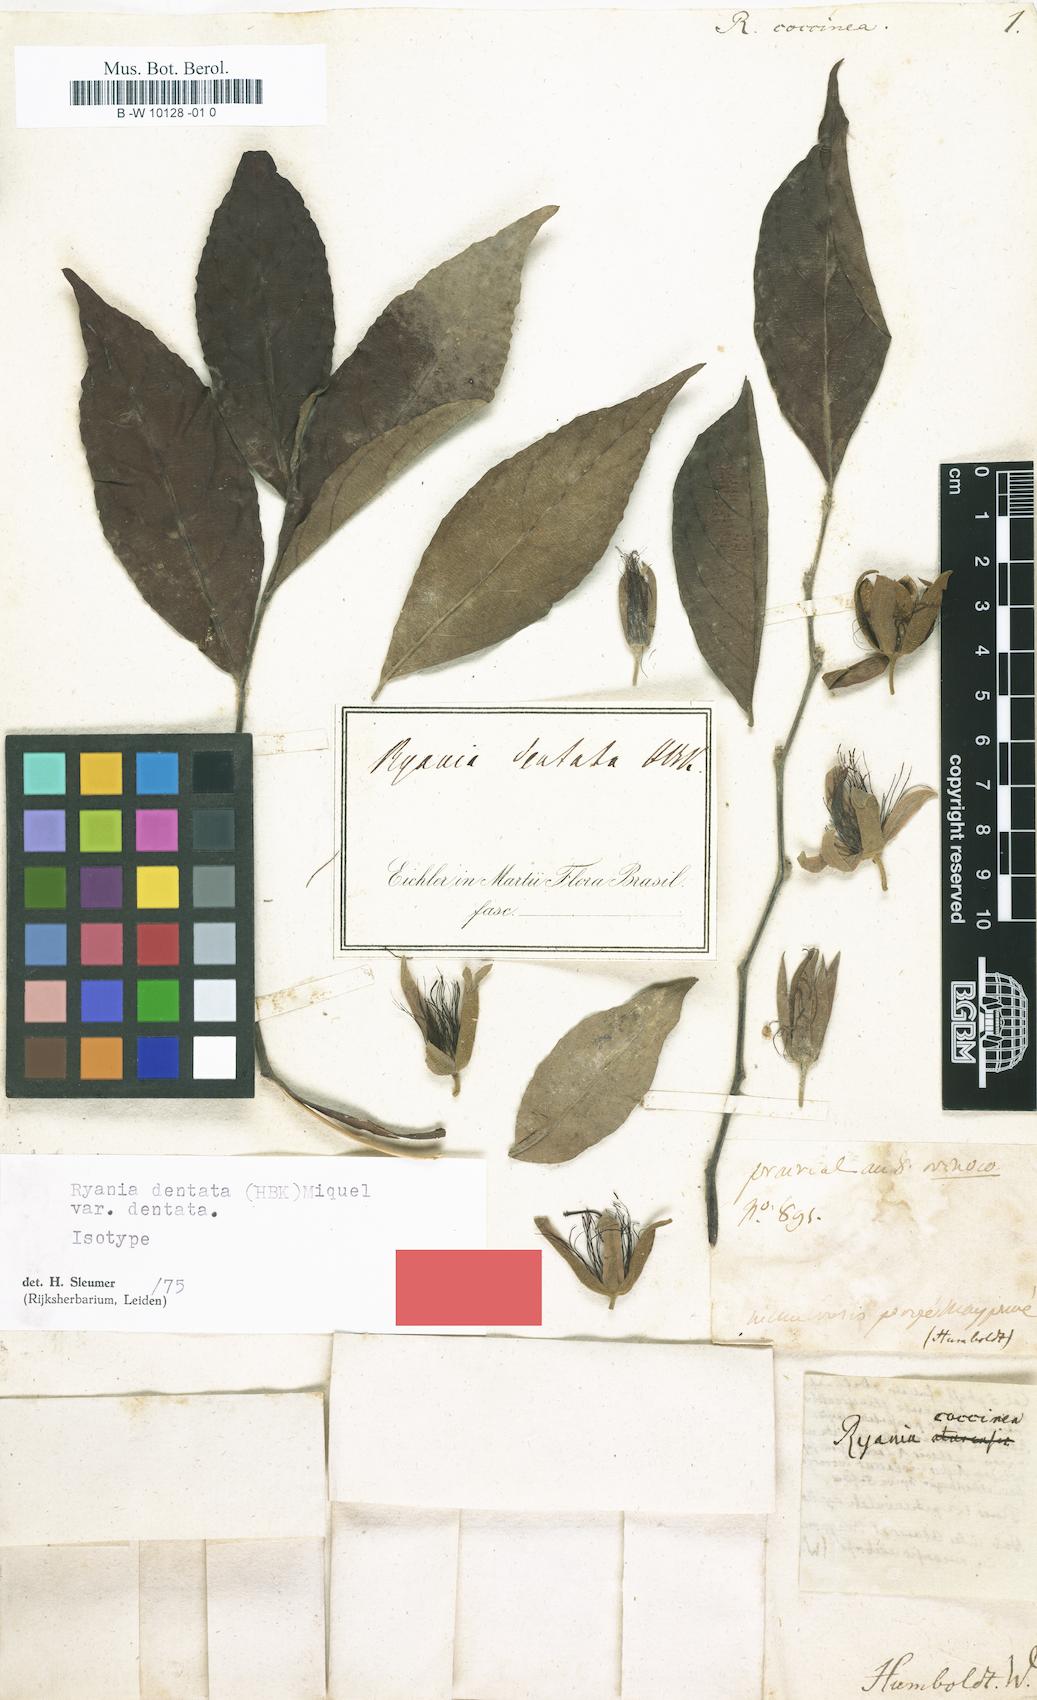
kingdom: Plantae
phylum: Tracheophyta
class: Magnoliopsida
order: Malpighiales
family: Salicaceae
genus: Ryania
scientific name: Ryania
